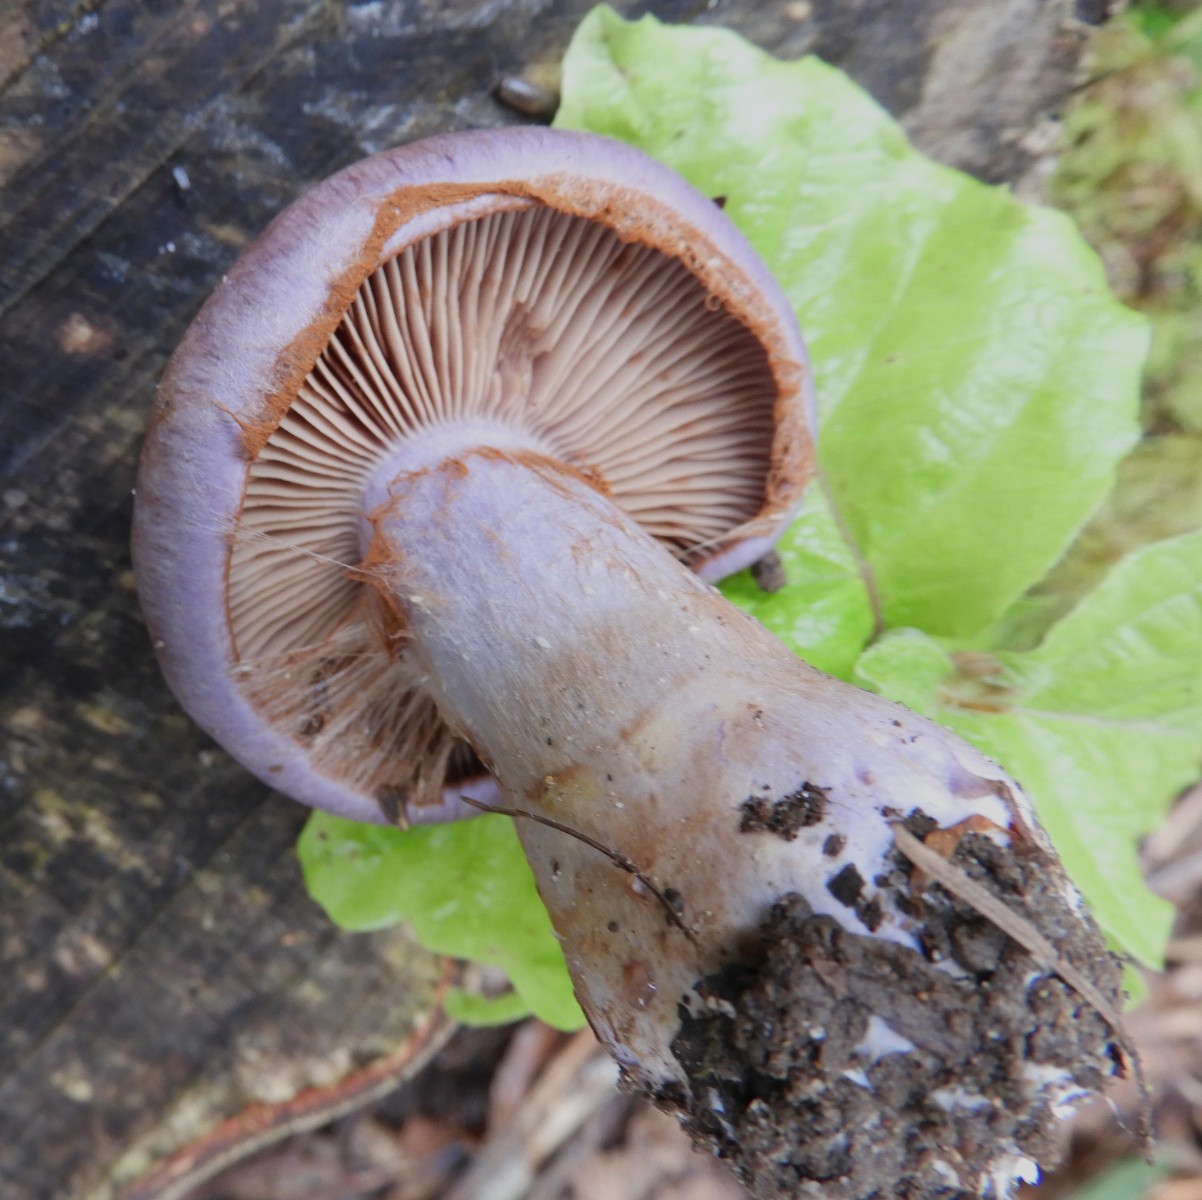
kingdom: Fungi
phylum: Basidiomycota
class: Agaricomycetes
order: Agaricales
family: Cortinariaceae
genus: Cortinarius
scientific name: Cortinarius largus
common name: violetrandet slørhat
